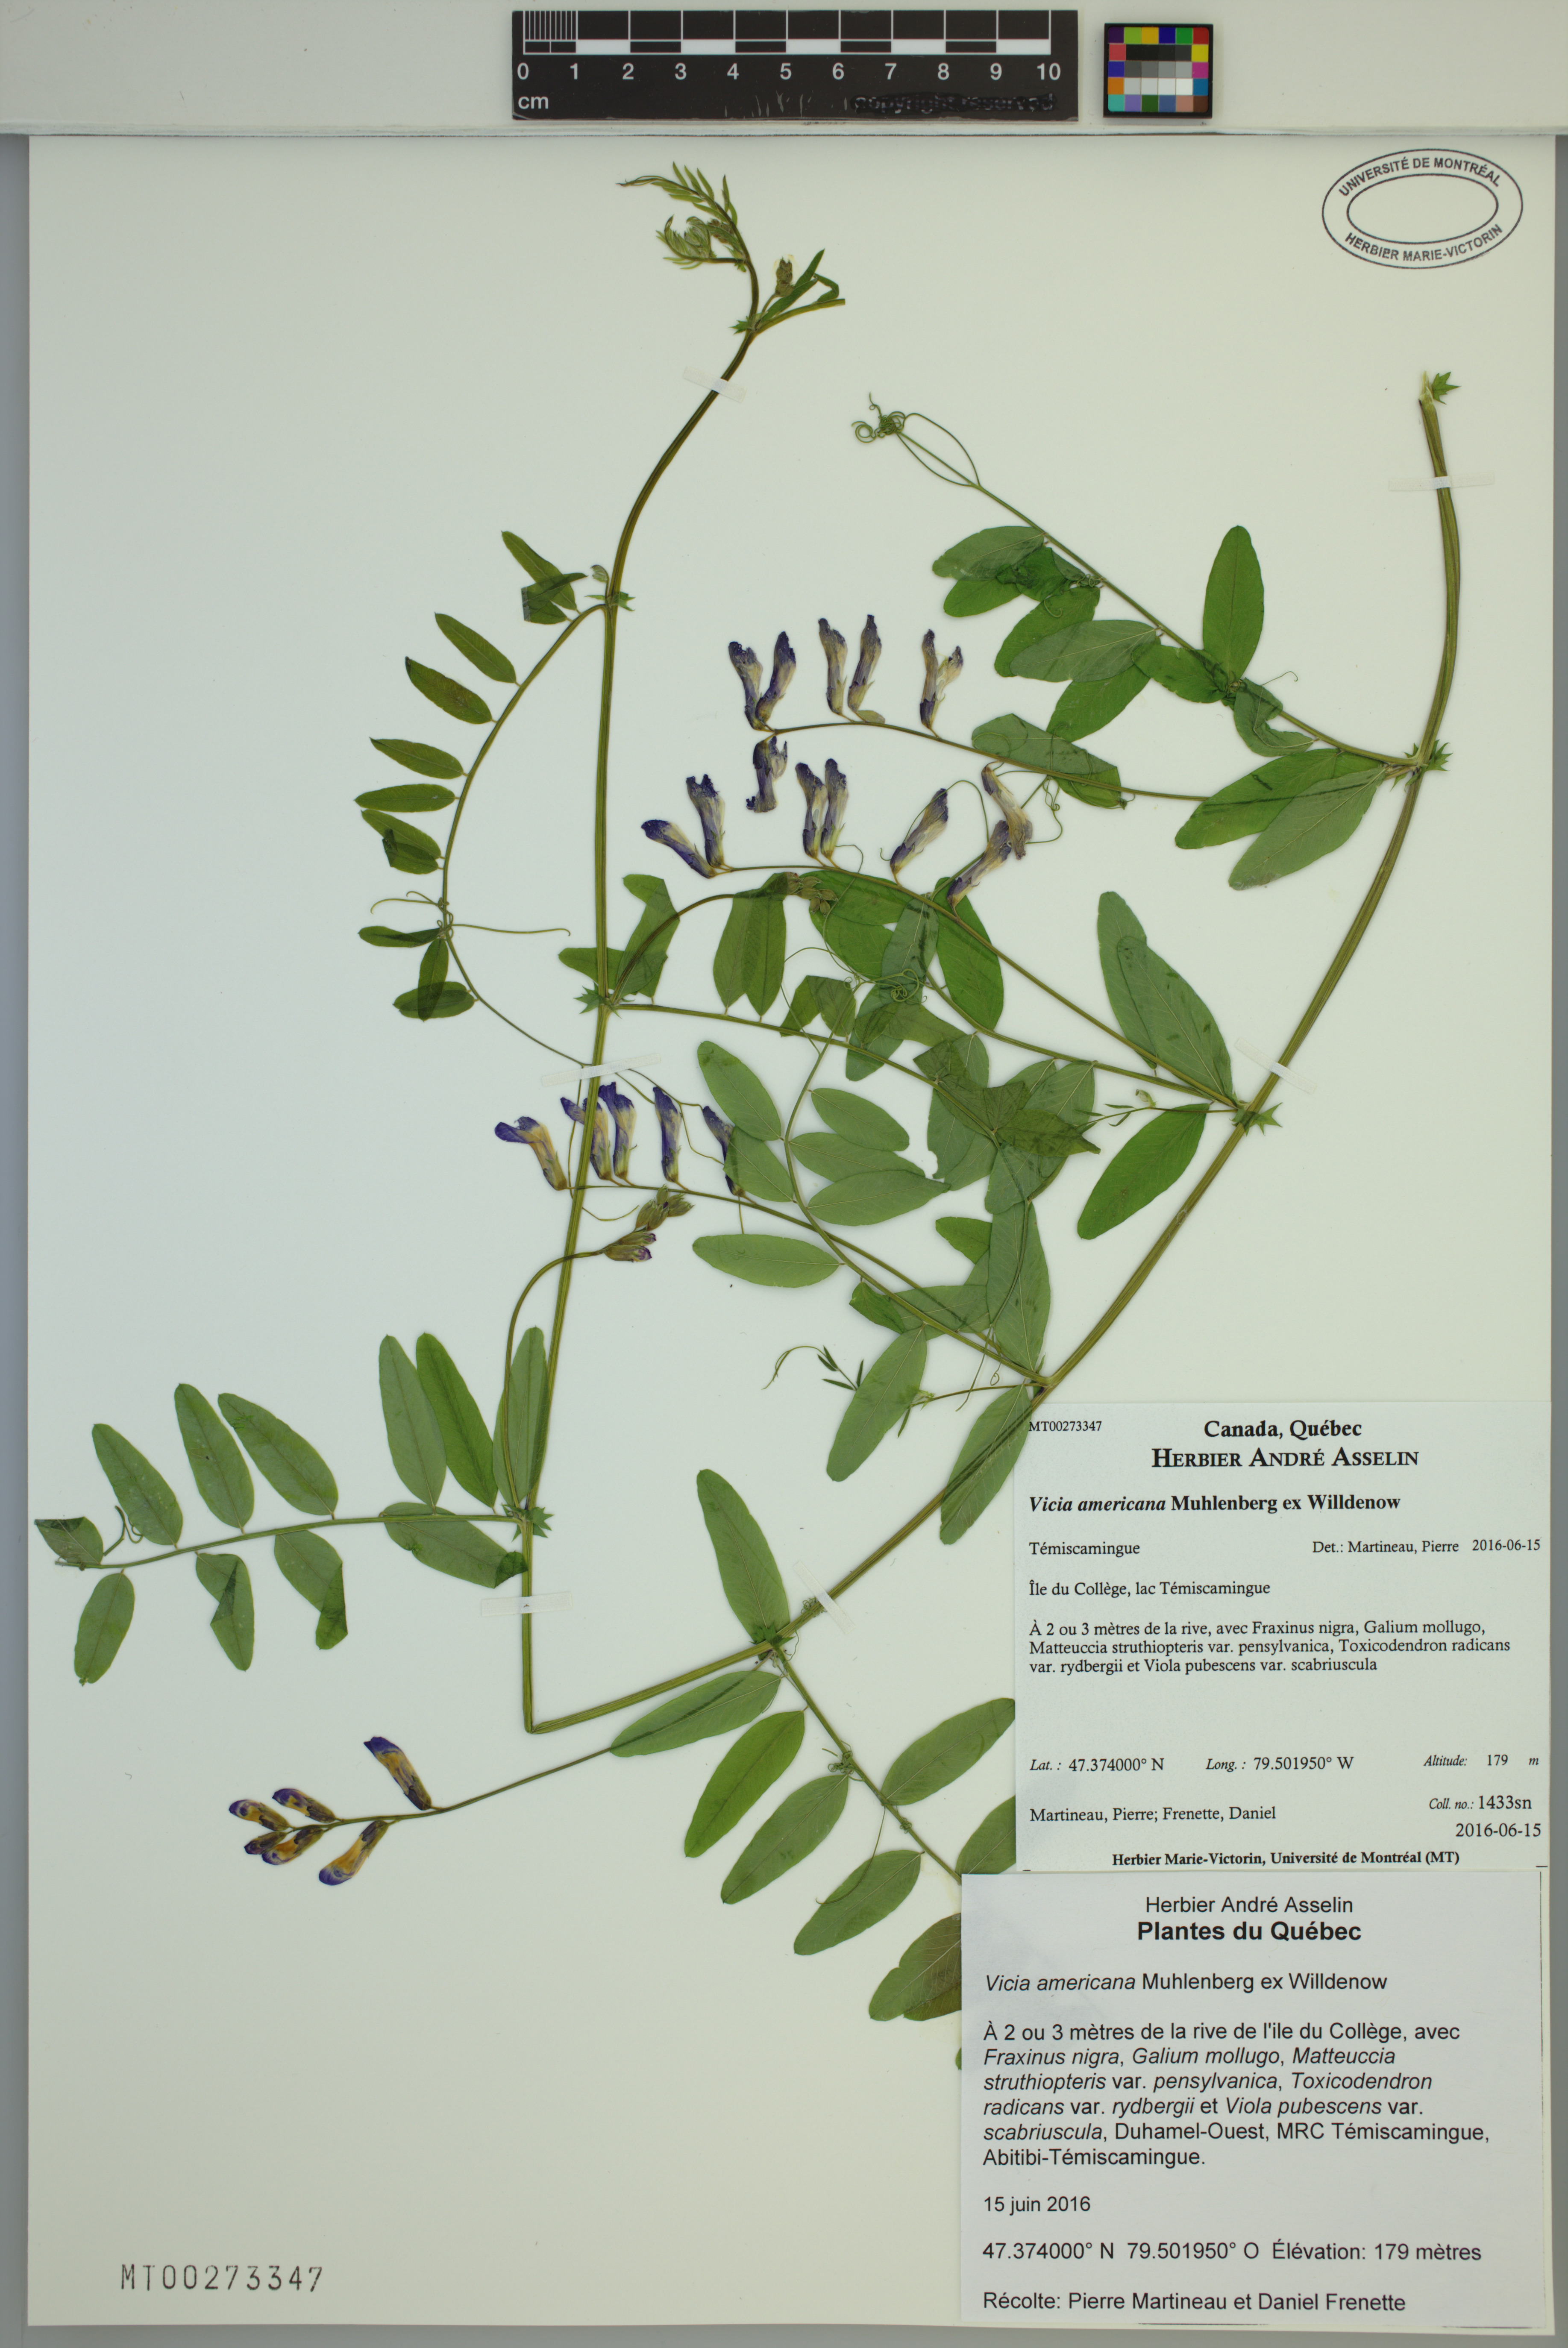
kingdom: Plantae
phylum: Tracheophyta
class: Magnoliopsida
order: Fabales
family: Fabaceae
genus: Vicia
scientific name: Vicia americana
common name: American vetch
